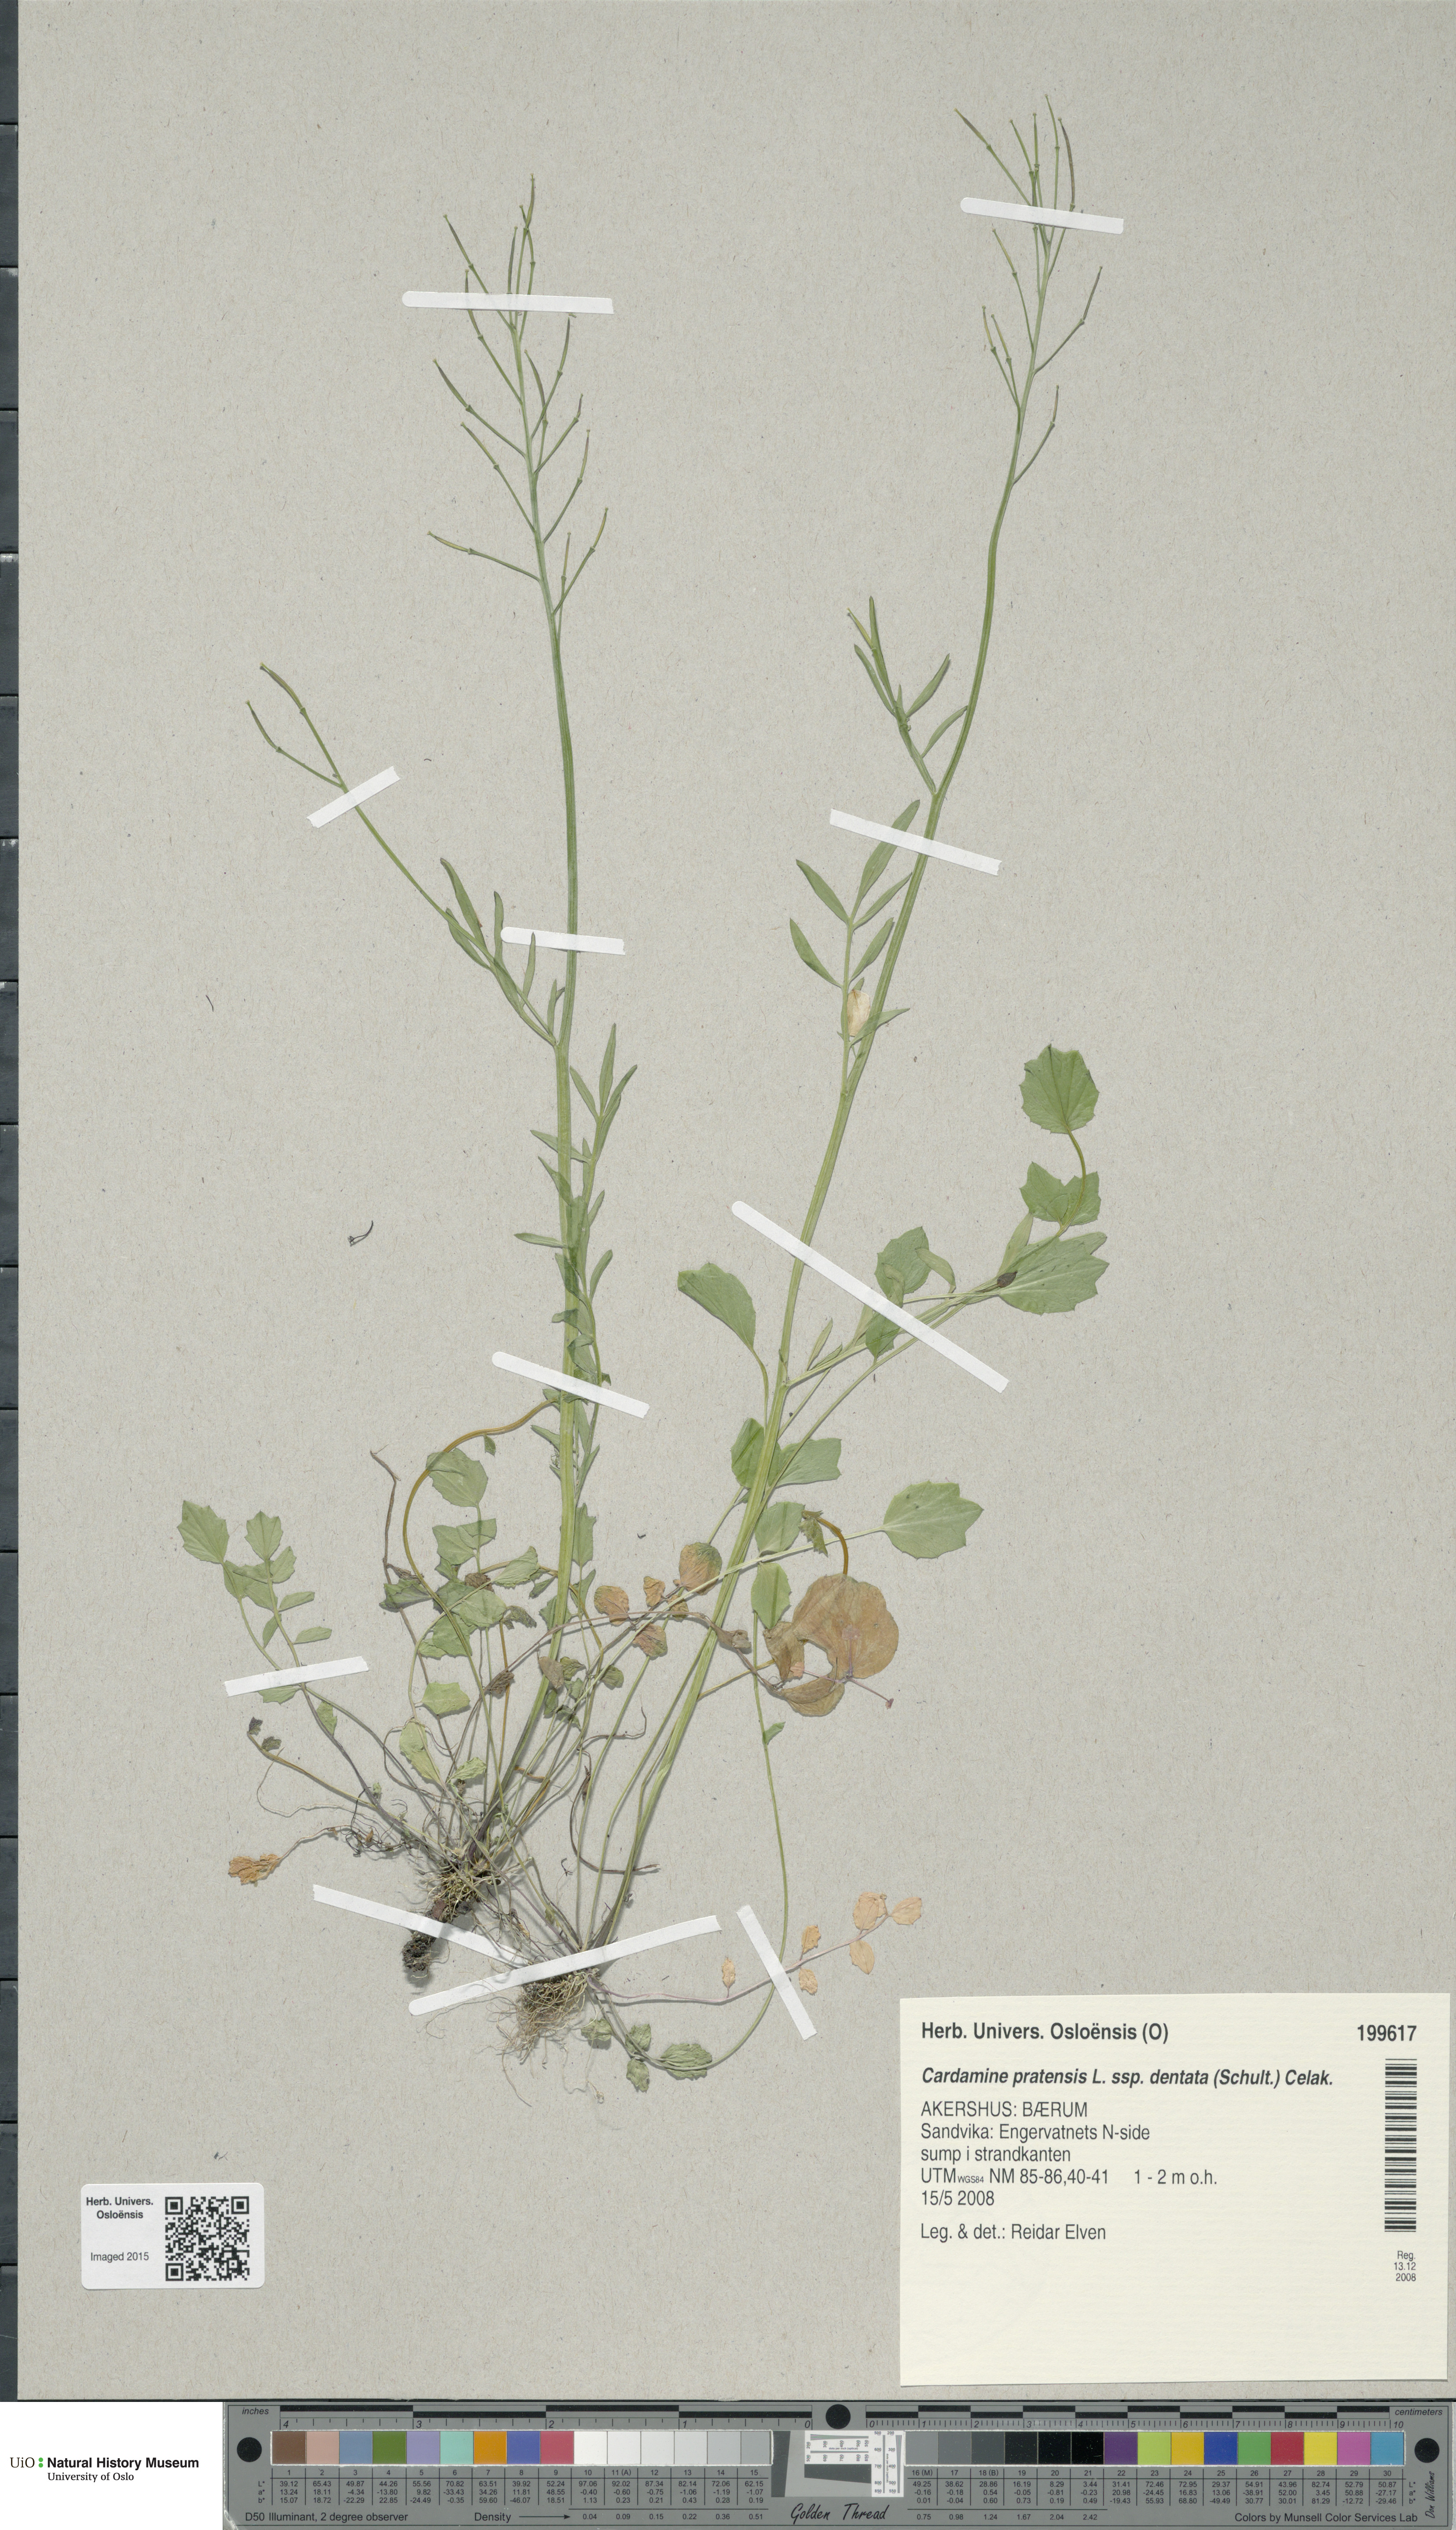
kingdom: Plantae
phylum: Tracheophyta
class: Magnoliopsida
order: Brassicales
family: Brassicaceae
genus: Cardamine
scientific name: Cardamine dentata
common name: Toothed bittercress
